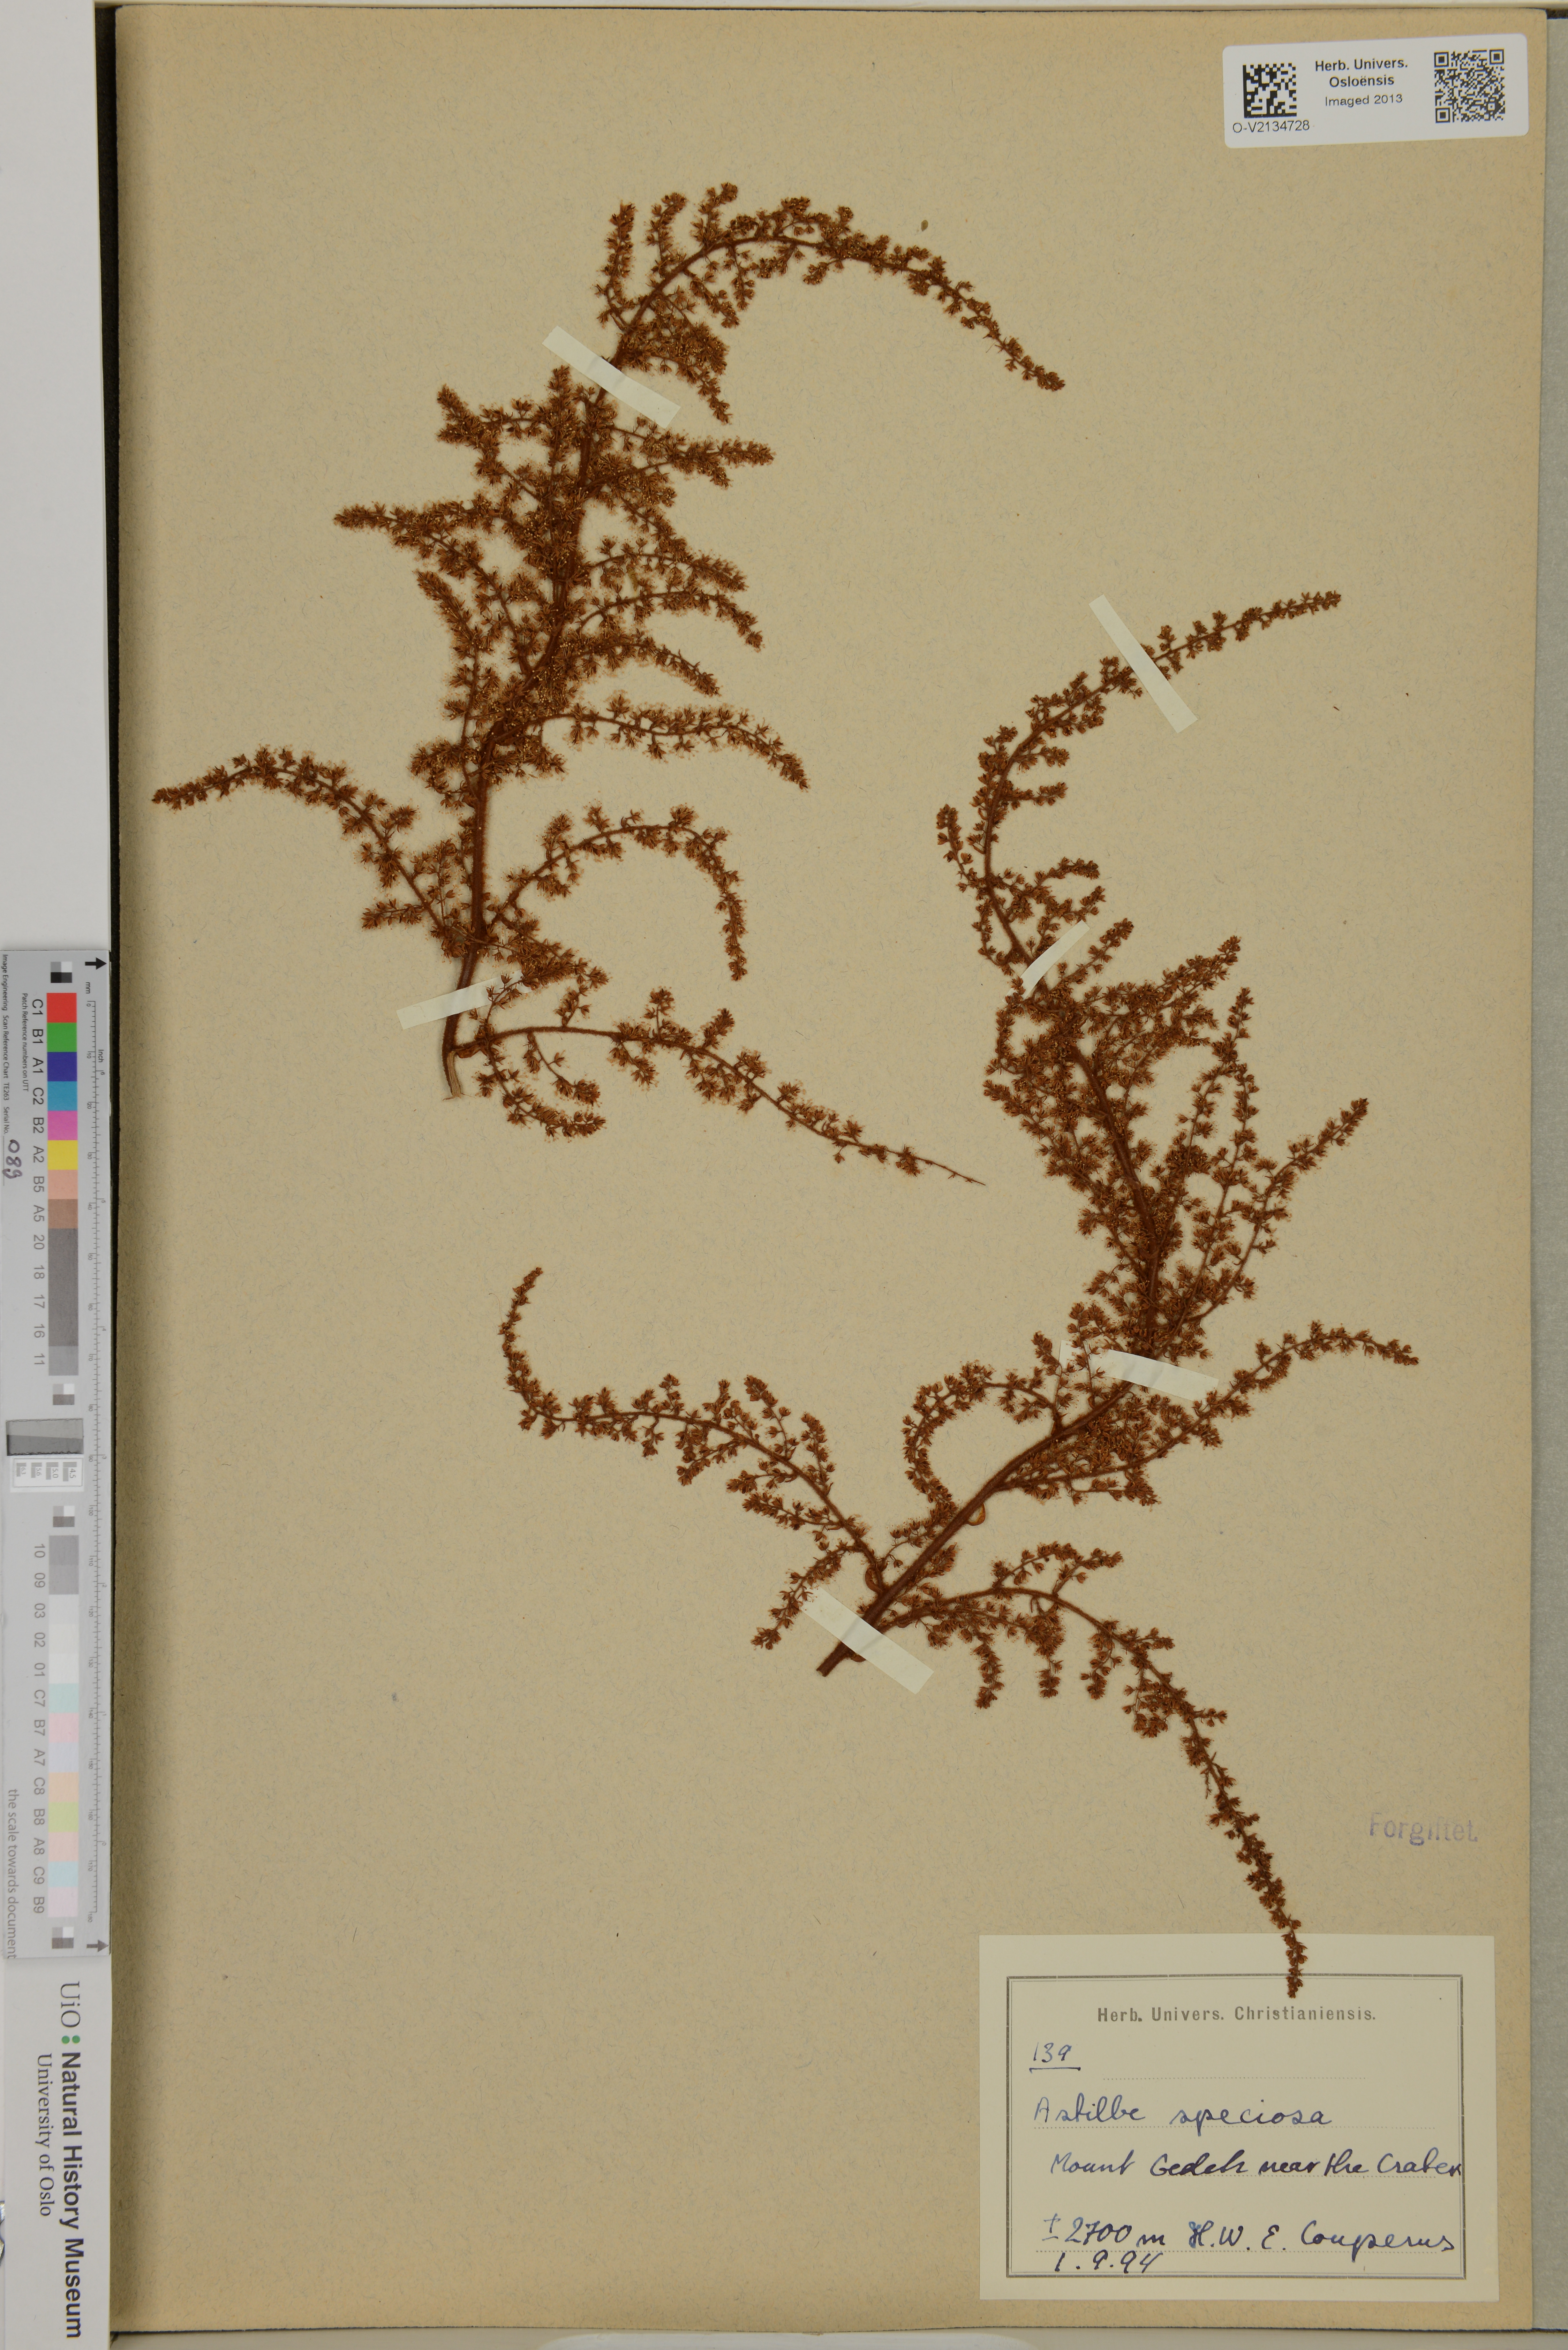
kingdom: Plantae
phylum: Tracheophyta
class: Magnoliopsida
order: Saxifragales
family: Saxifragaceae
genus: Astilbe
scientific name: Astilbe rivularis
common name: Tall false-buck's-beard
